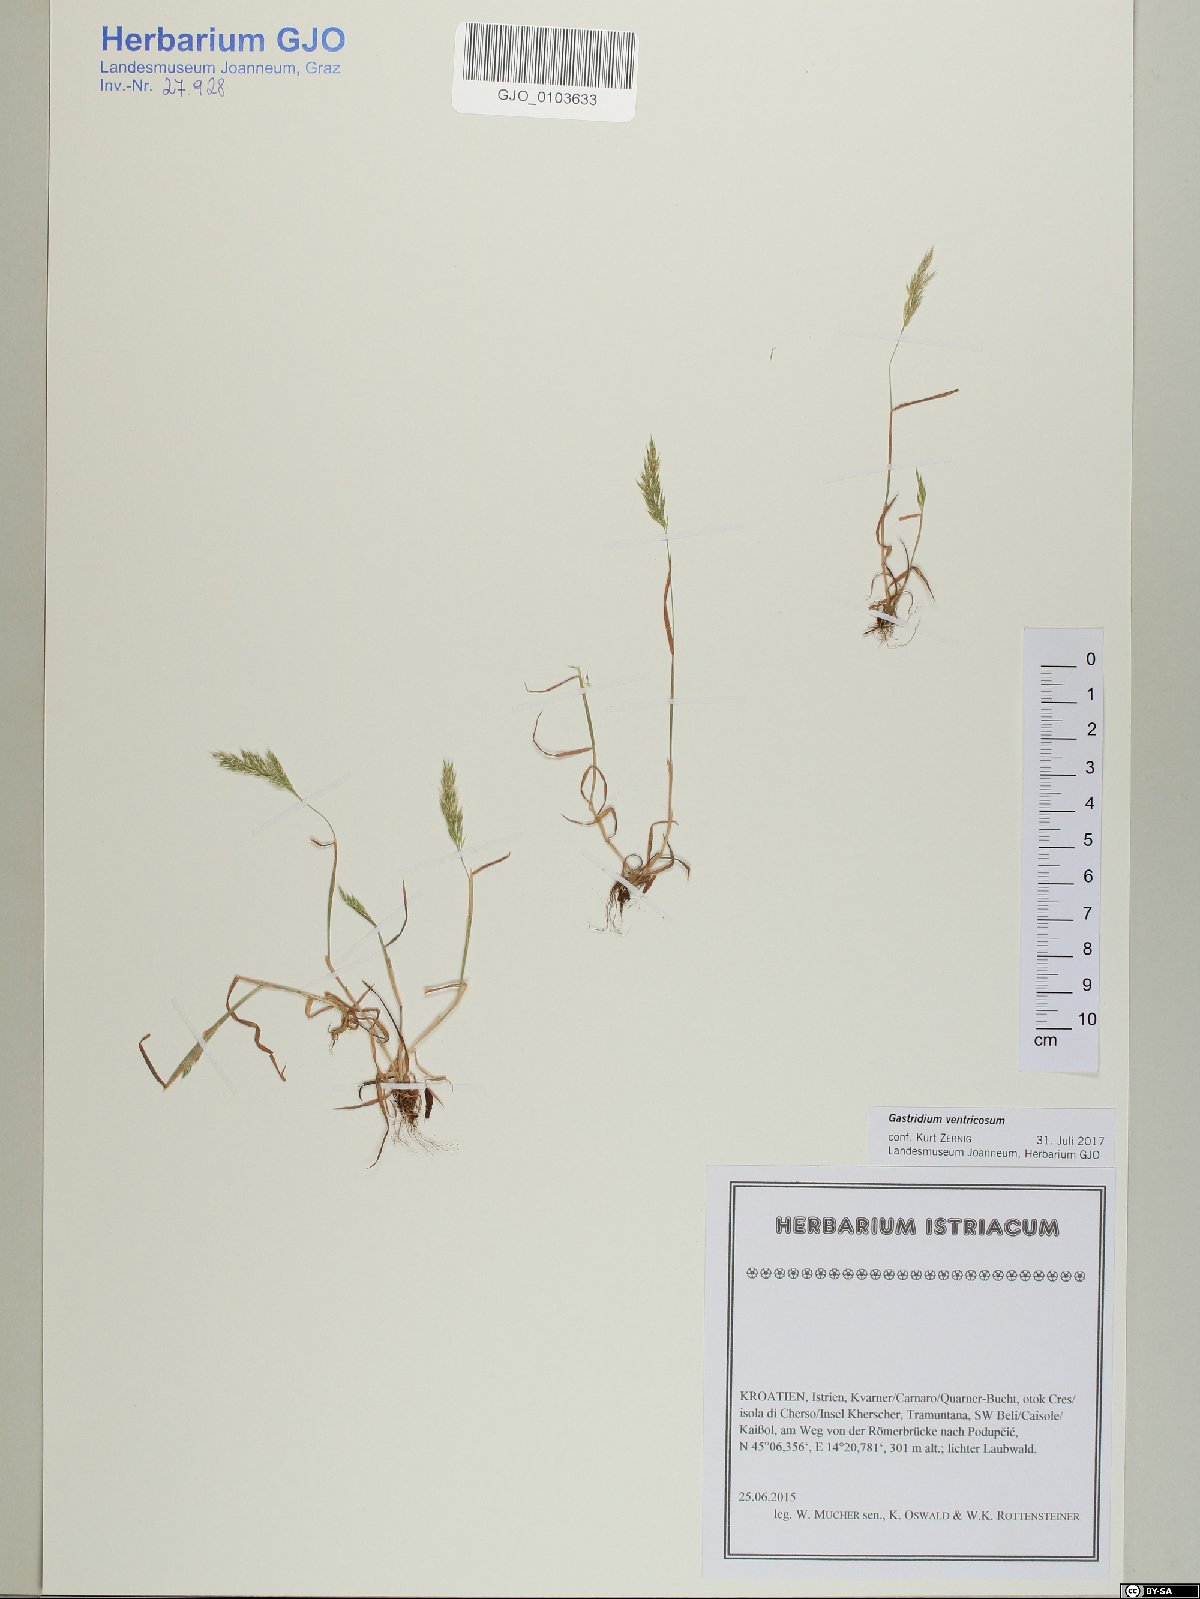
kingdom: Plantae
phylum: Tracheophyta
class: Liliopsida
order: Poales
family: Poaceae
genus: Gastridium
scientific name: Gastridium ventricosum
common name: Nit-grass
